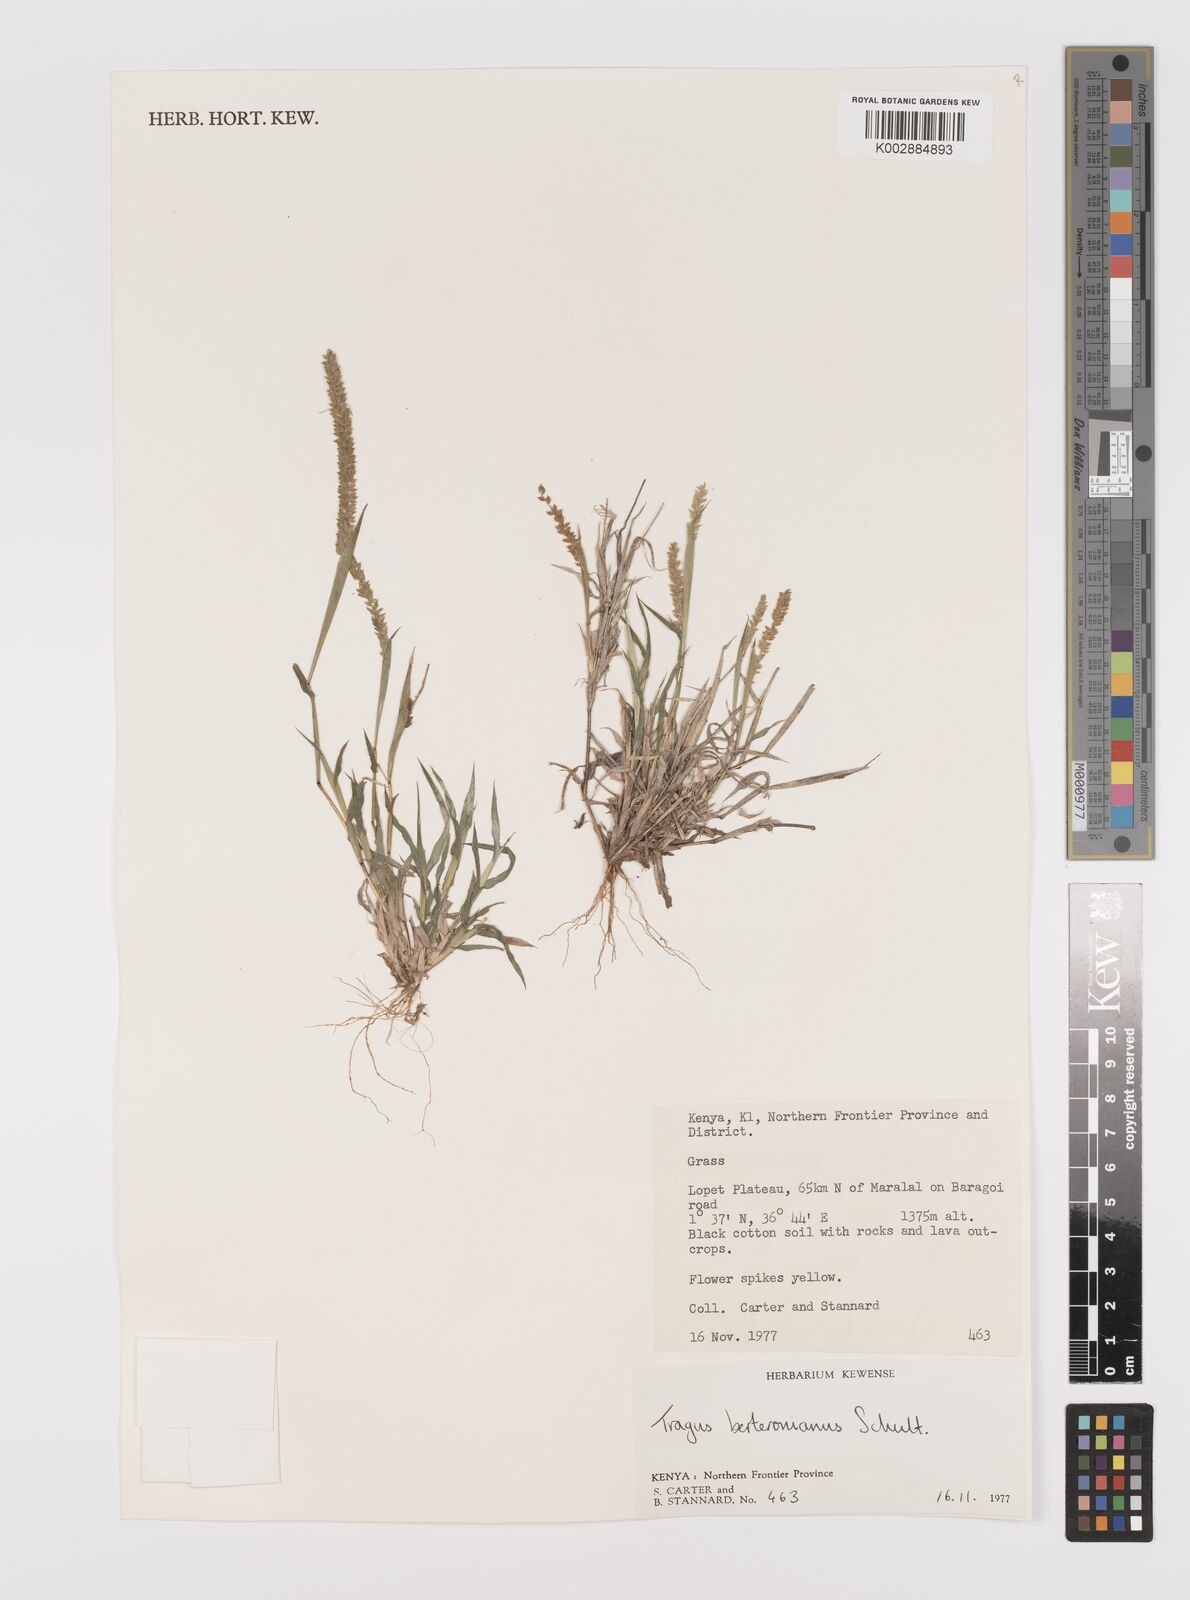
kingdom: Plantae
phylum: Tracheophyta
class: Liliopsida
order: Poales
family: Poaceae
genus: Tragus
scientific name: Tragus berteronianus
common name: African bur-grass
